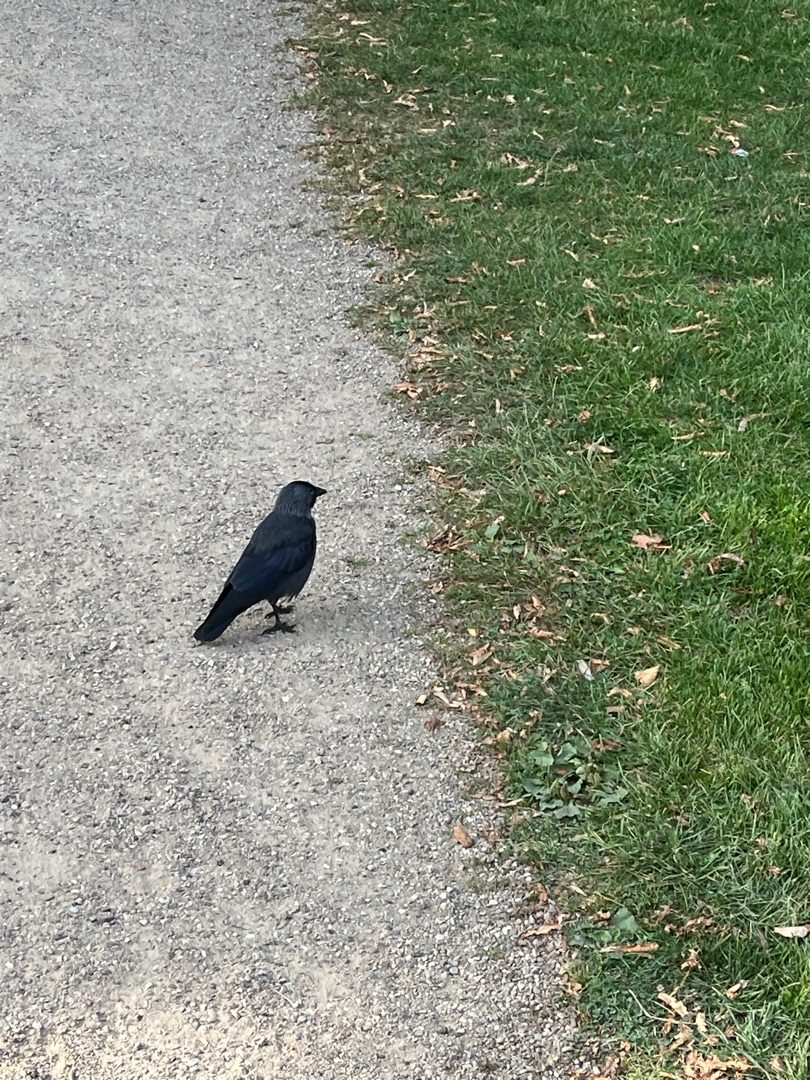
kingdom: Animalia
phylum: Chordata
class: Aves
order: Passeriformes
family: Corvidae
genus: Coloeus
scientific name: Coloeus monedula
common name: Allike
